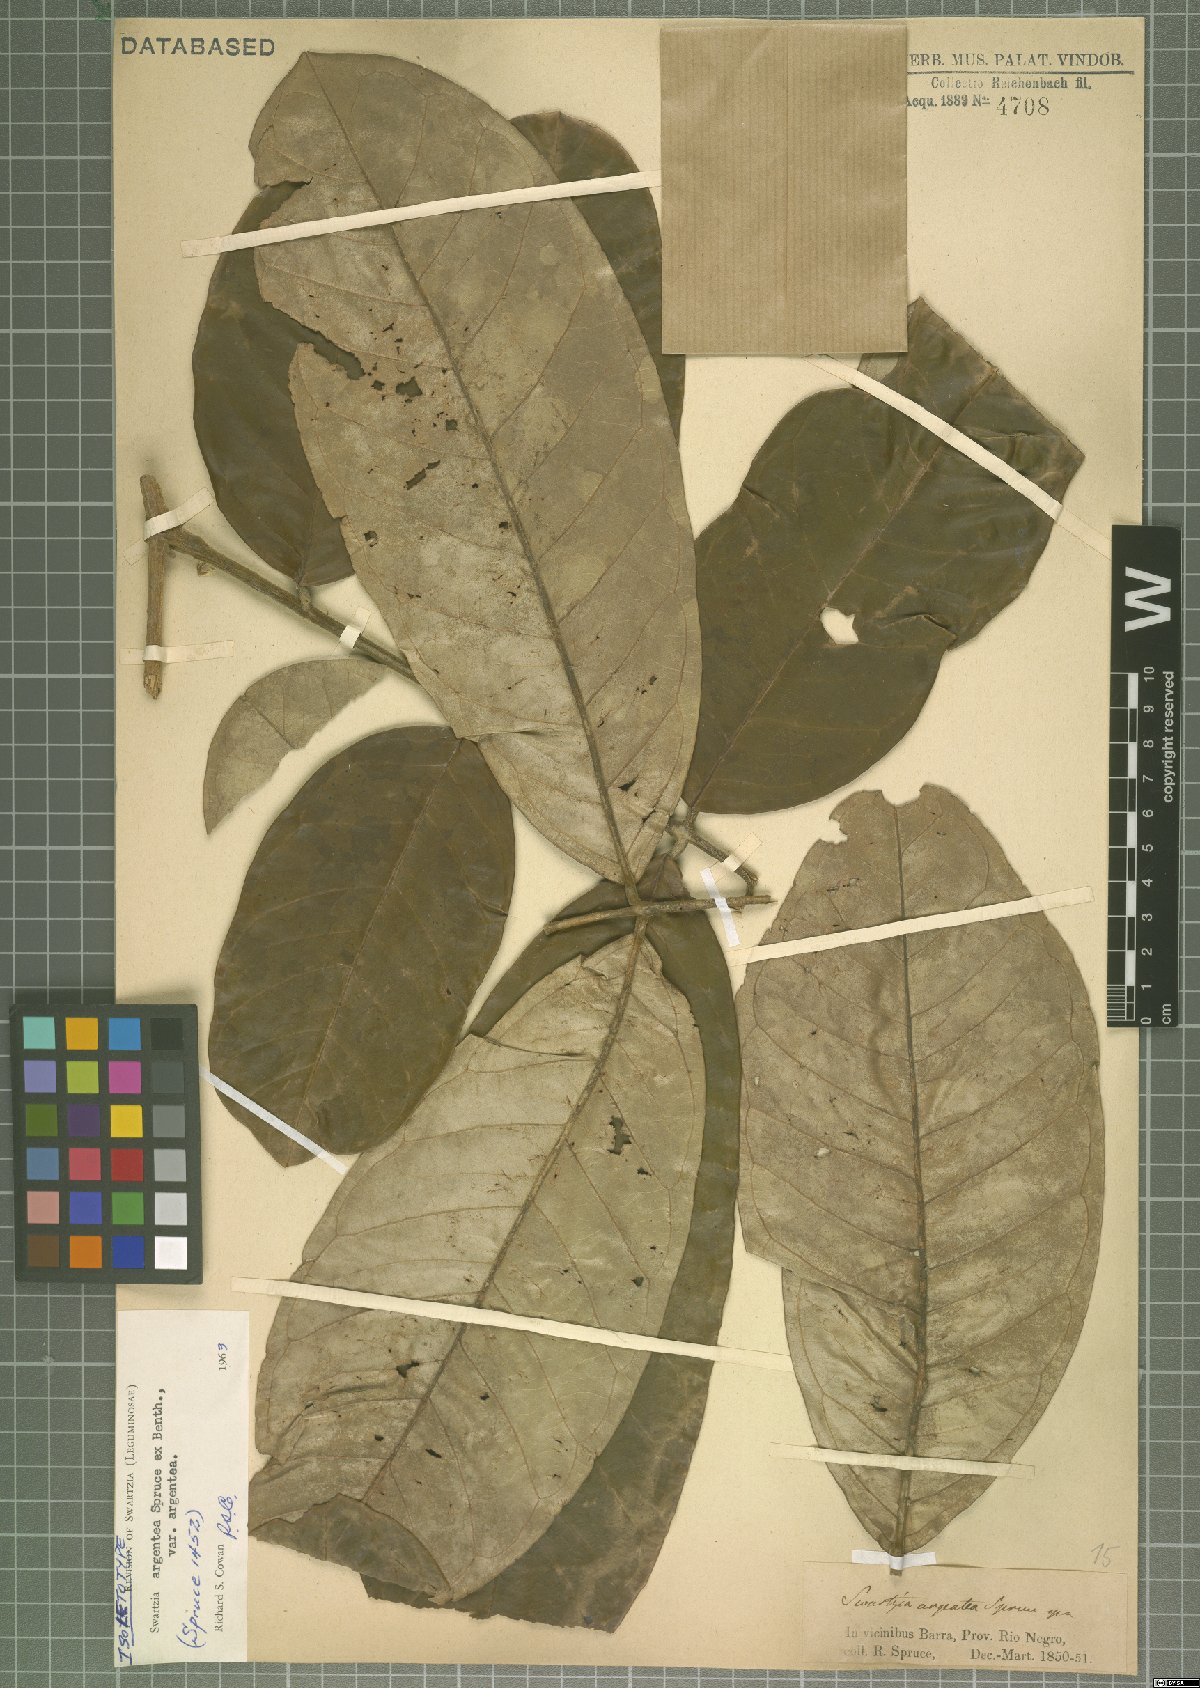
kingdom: Plantae
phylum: Tracheophyta
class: Magnoliopsida
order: Fabales
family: Fabaceae
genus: Swartzia
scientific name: Swartzia argentea
